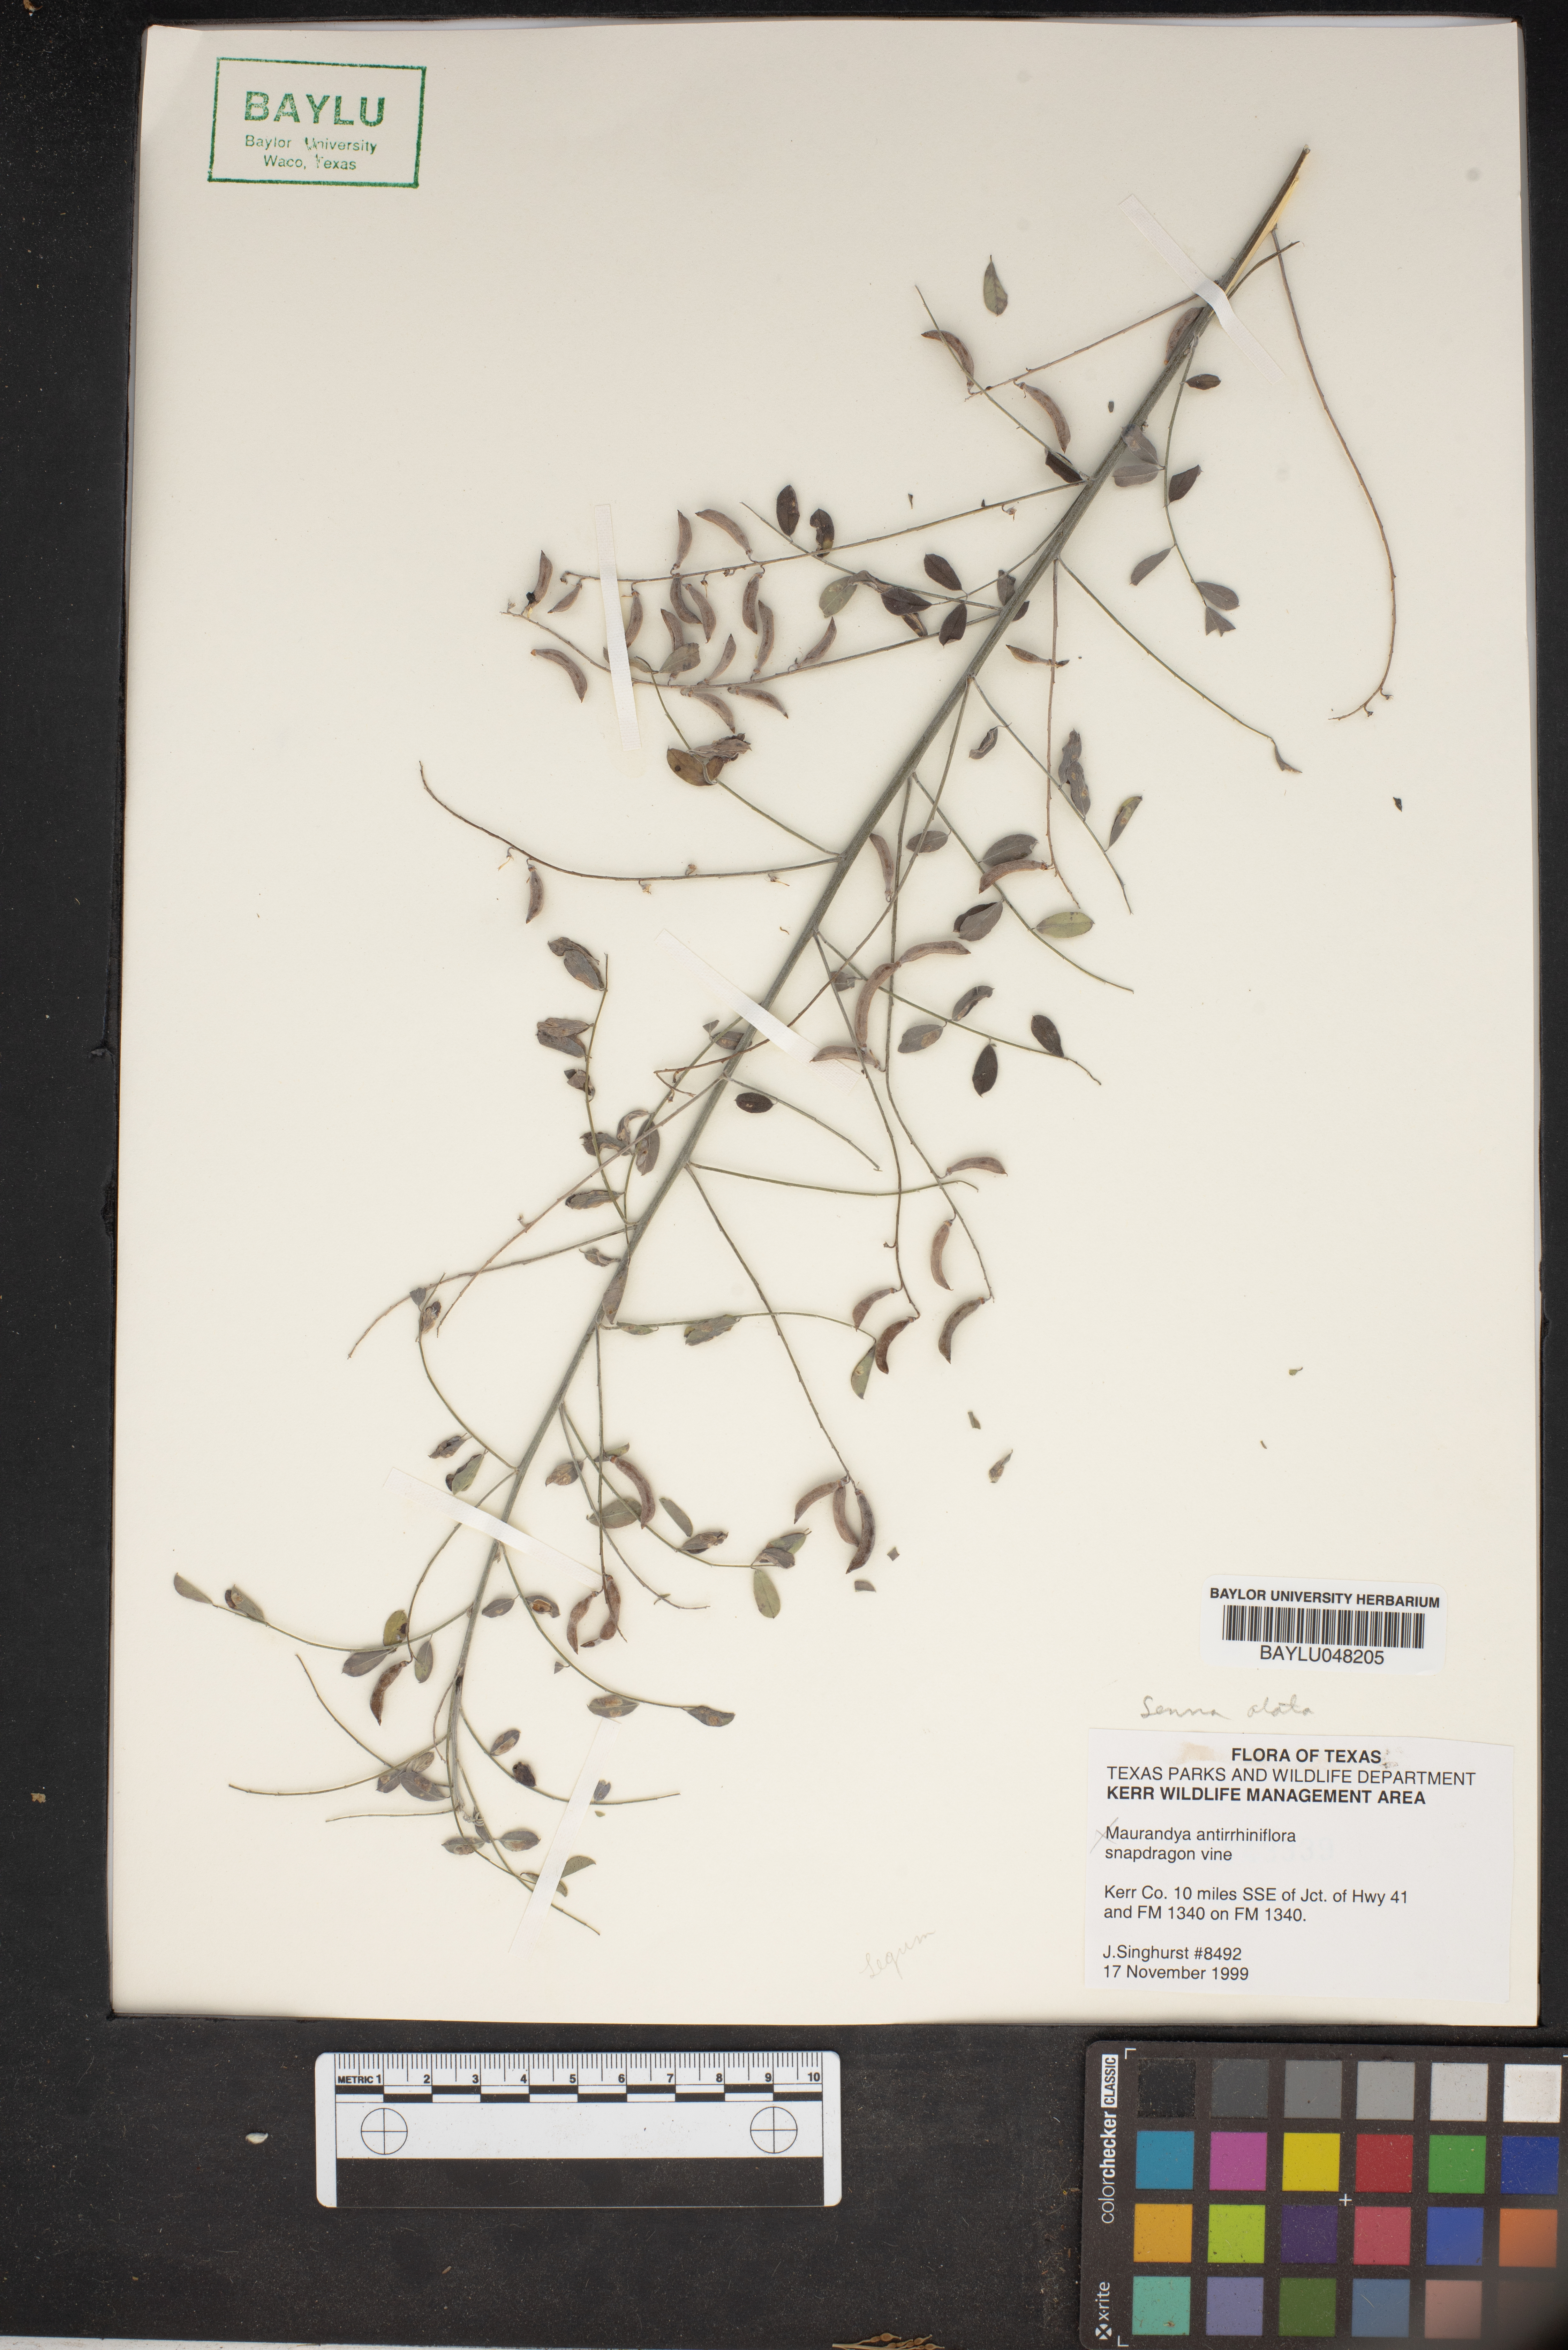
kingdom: Plantae
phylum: Tracheophyta
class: Magnoliopsida
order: Fabales
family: Fabaceae
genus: Senna
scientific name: Senna alata
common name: Emperor's candlesticks
